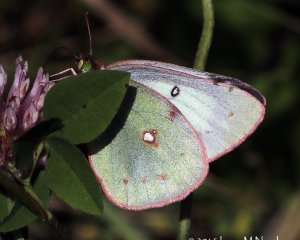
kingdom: Animalia
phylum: Arthropoda
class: Insecta
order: Lepidoptera
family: Pieridae
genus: Colias
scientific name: Colias
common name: Clouded Yellows
